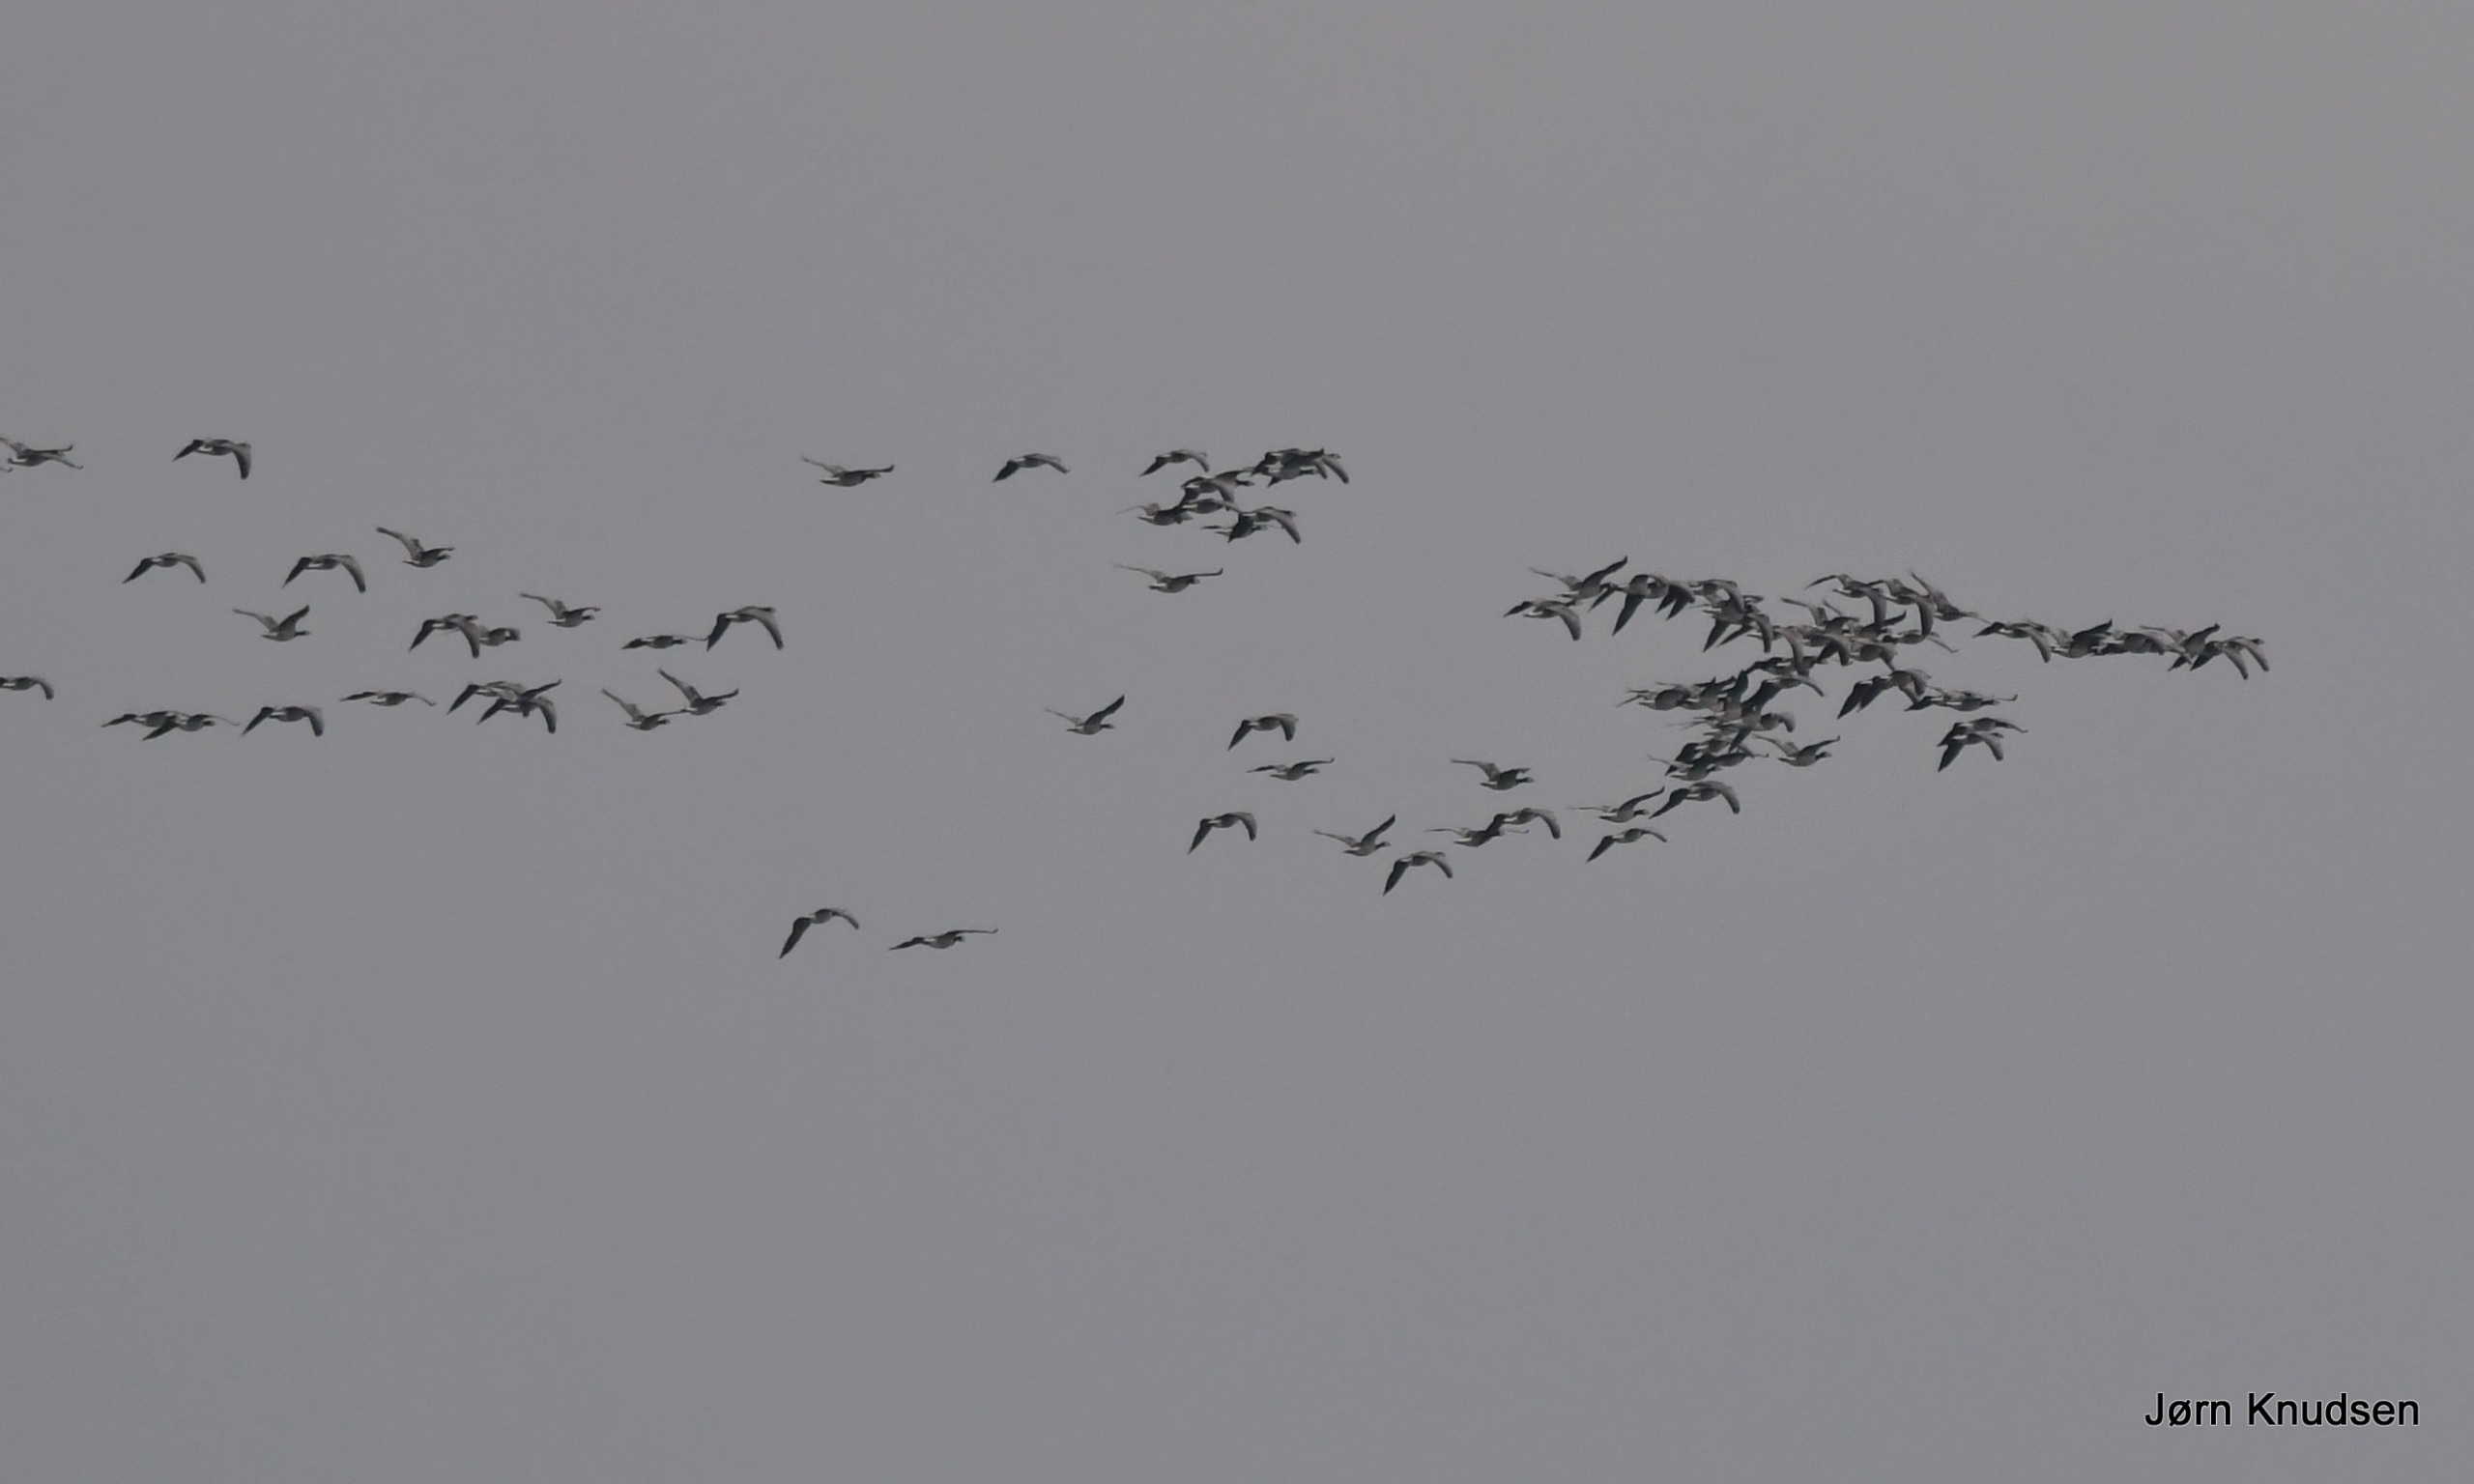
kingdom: Animalia
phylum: Chordata
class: Aves
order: Anseriformes
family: Anatidae
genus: Branta
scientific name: Branta leucopsis
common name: Bramgås
